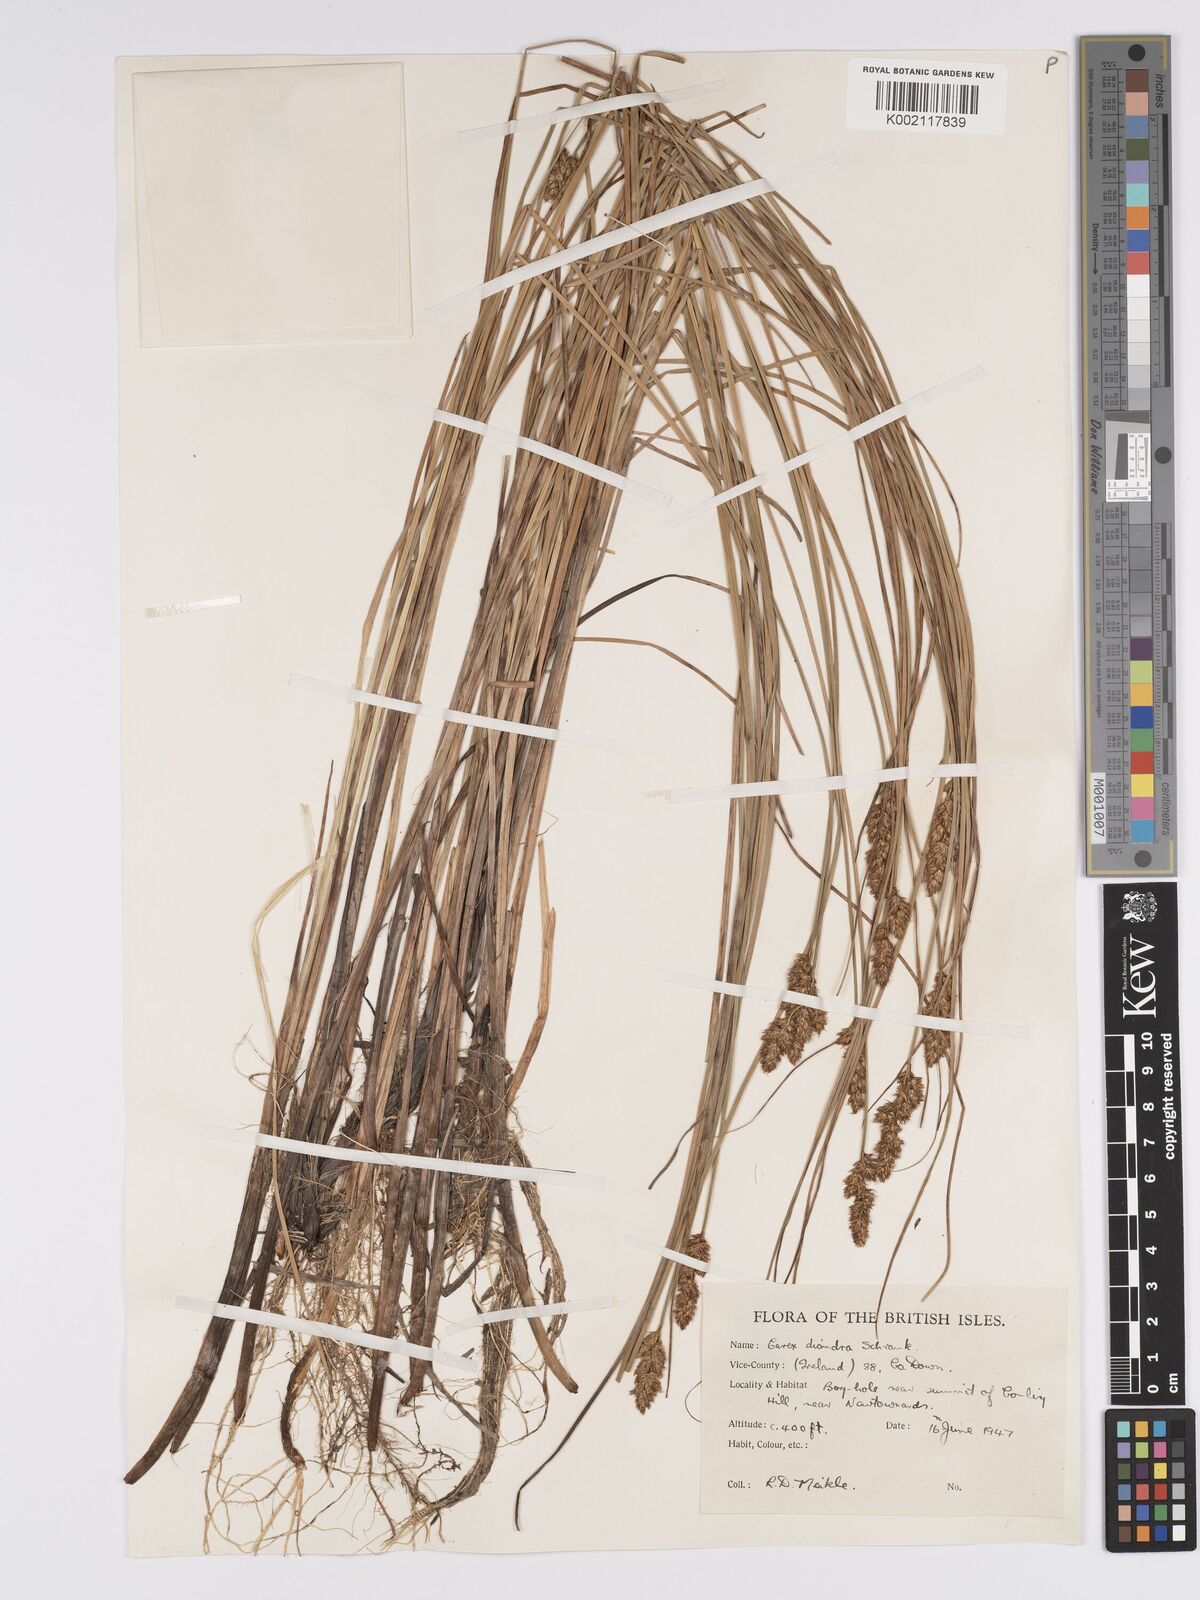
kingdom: Plantae
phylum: Tracheophyta
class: Liliopsida
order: Poales
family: Cyperaceae
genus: Carex
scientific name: Carex diandra
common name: Lesser tussock-sedge
